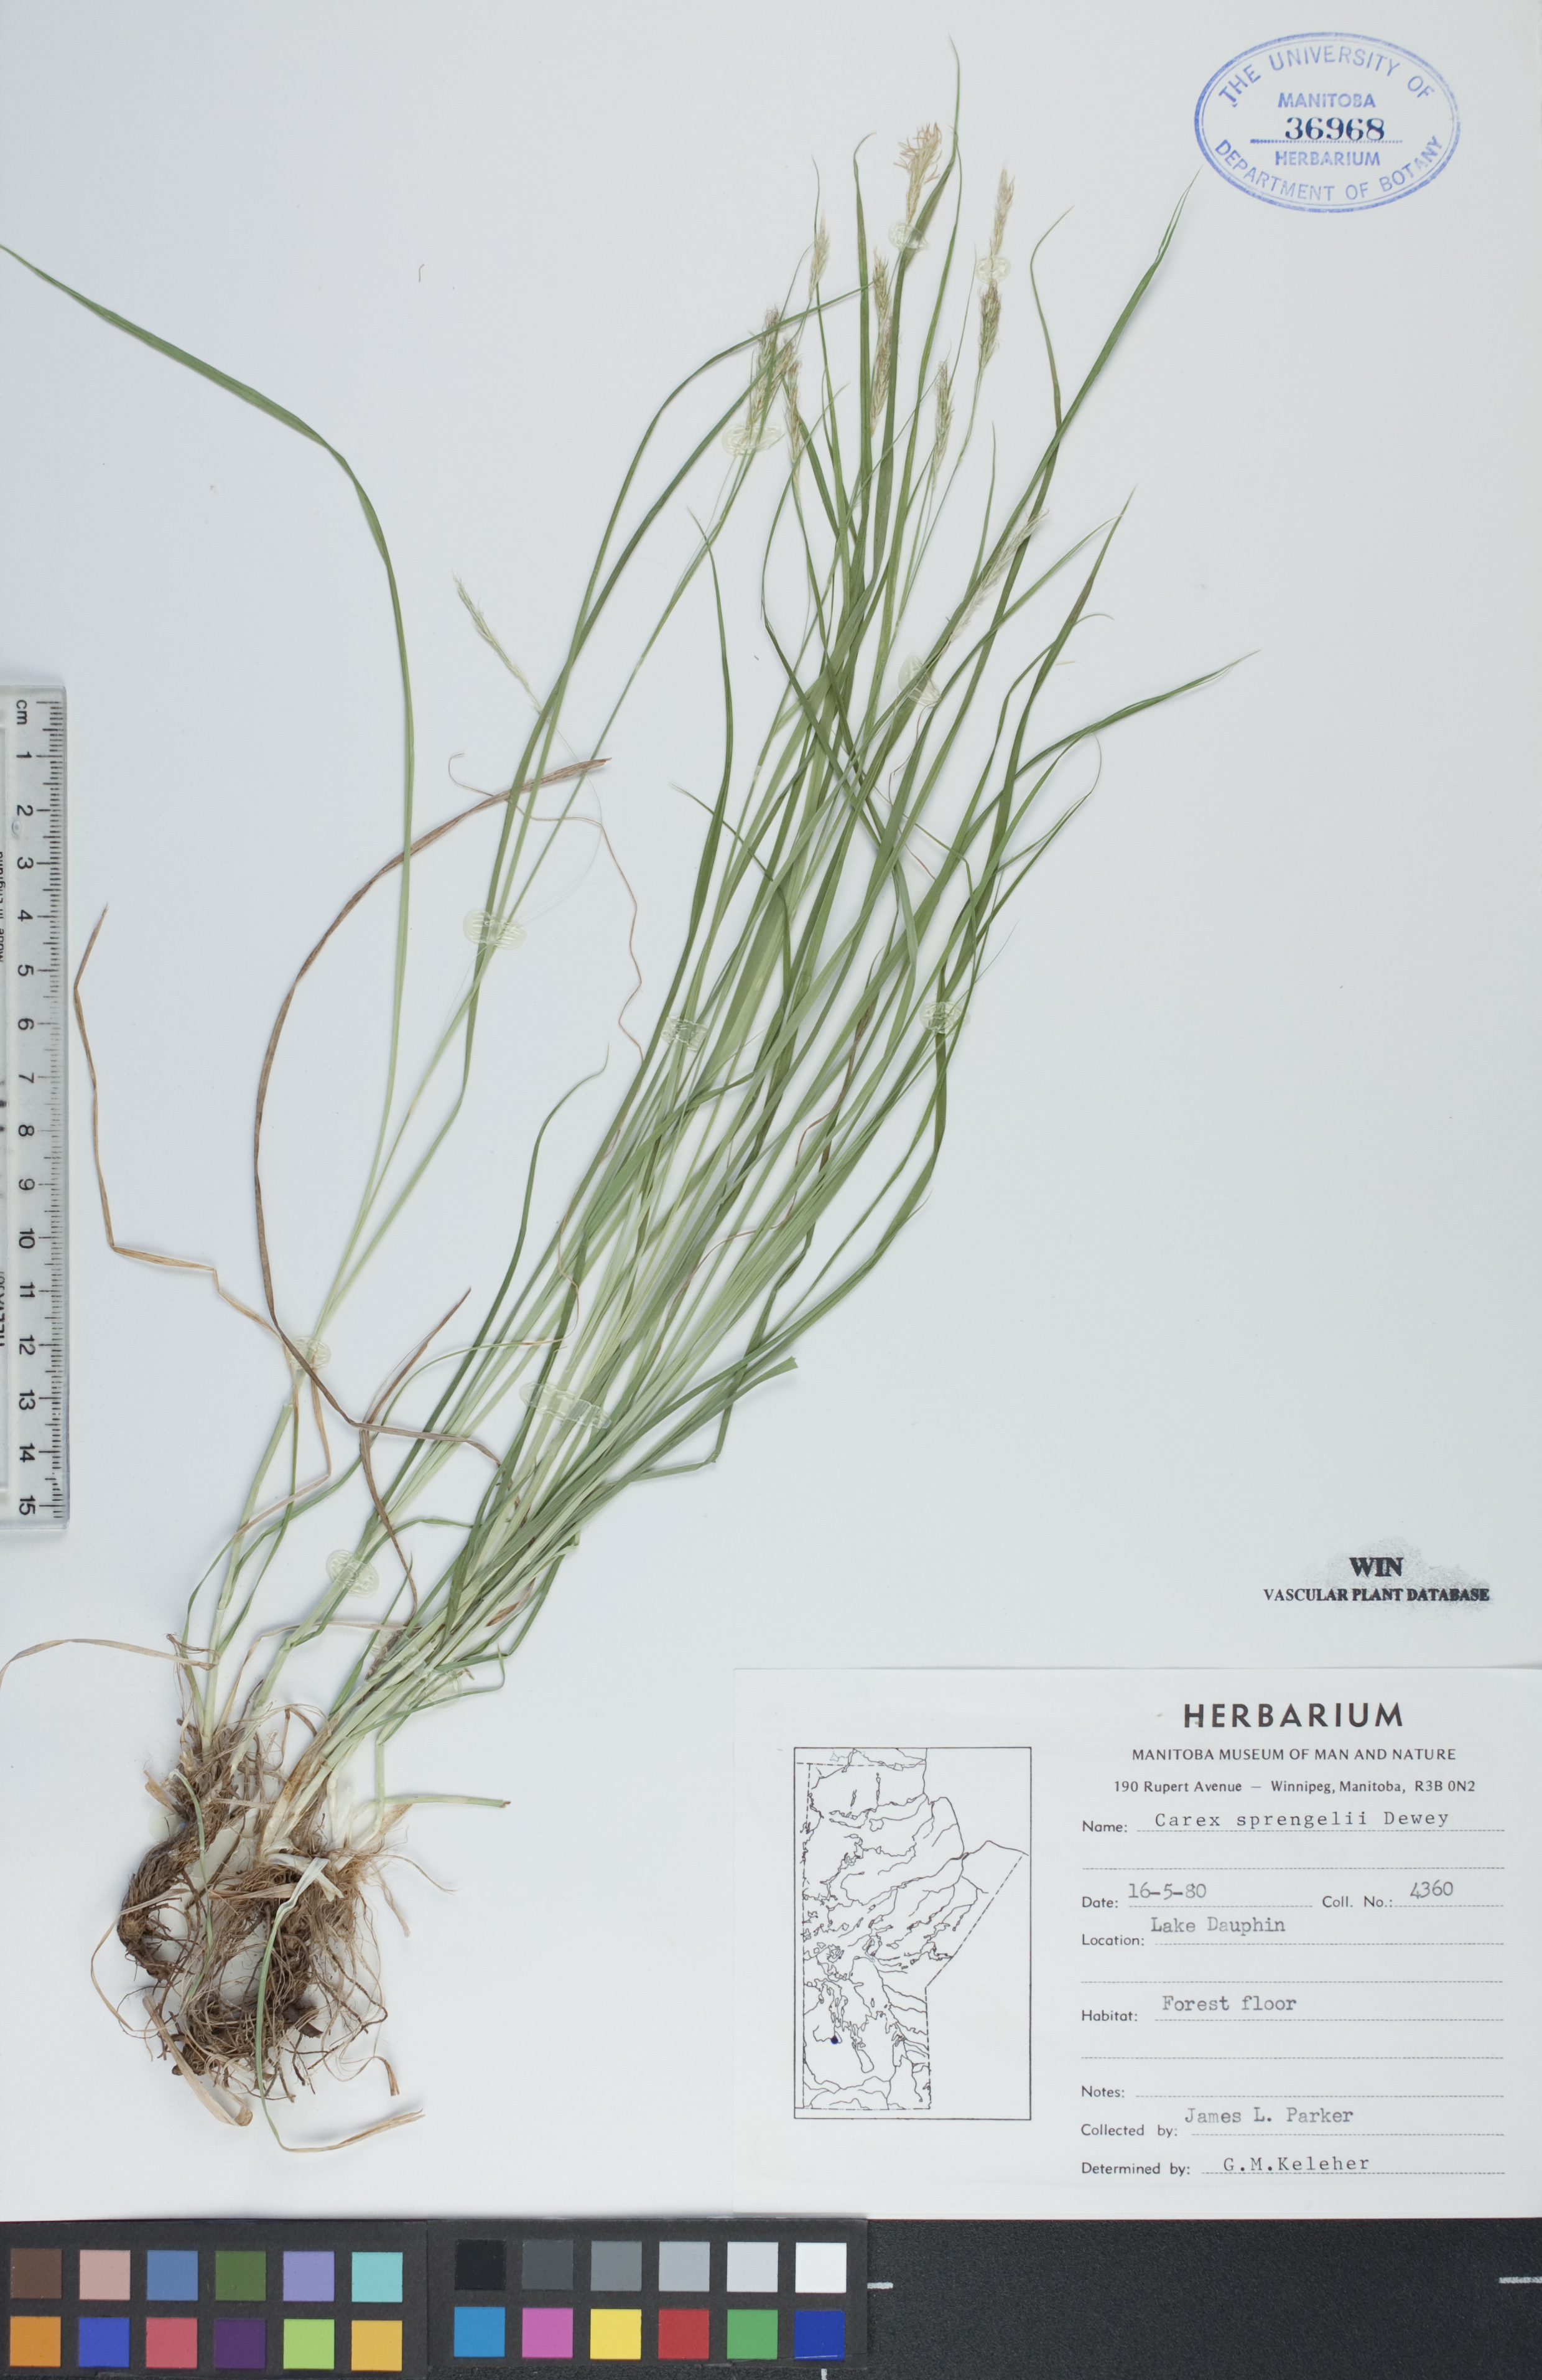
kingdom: Plantae
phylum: Tracheophyta
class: Liliopsida
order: Poales
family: Cyperaceae
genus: Carex
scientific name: Carex sprengelii
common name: Long-beaked sedge
